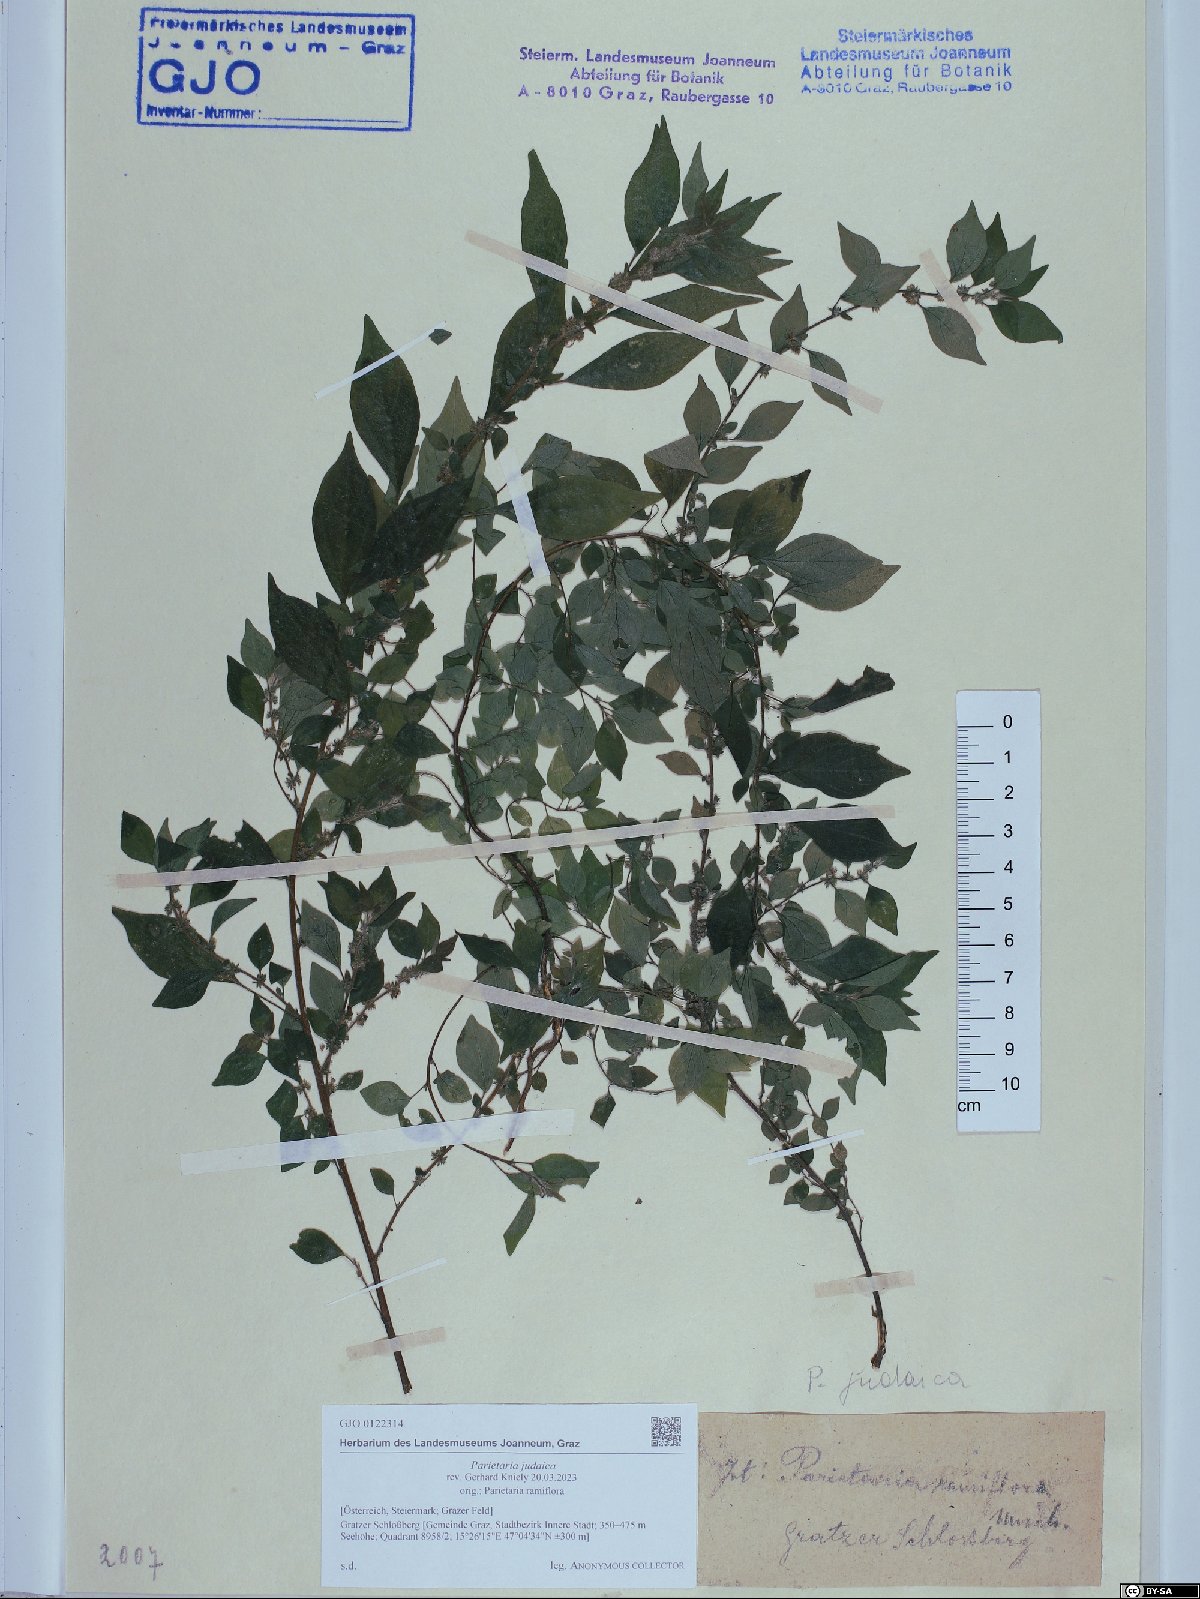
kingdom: Plantae
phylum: Tracheophyta
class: Magnoliopsida
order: Rosales
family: Urticaceae
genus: Parietaria
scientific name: Parietaria judaica
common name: Pellitory-of-the-wall
